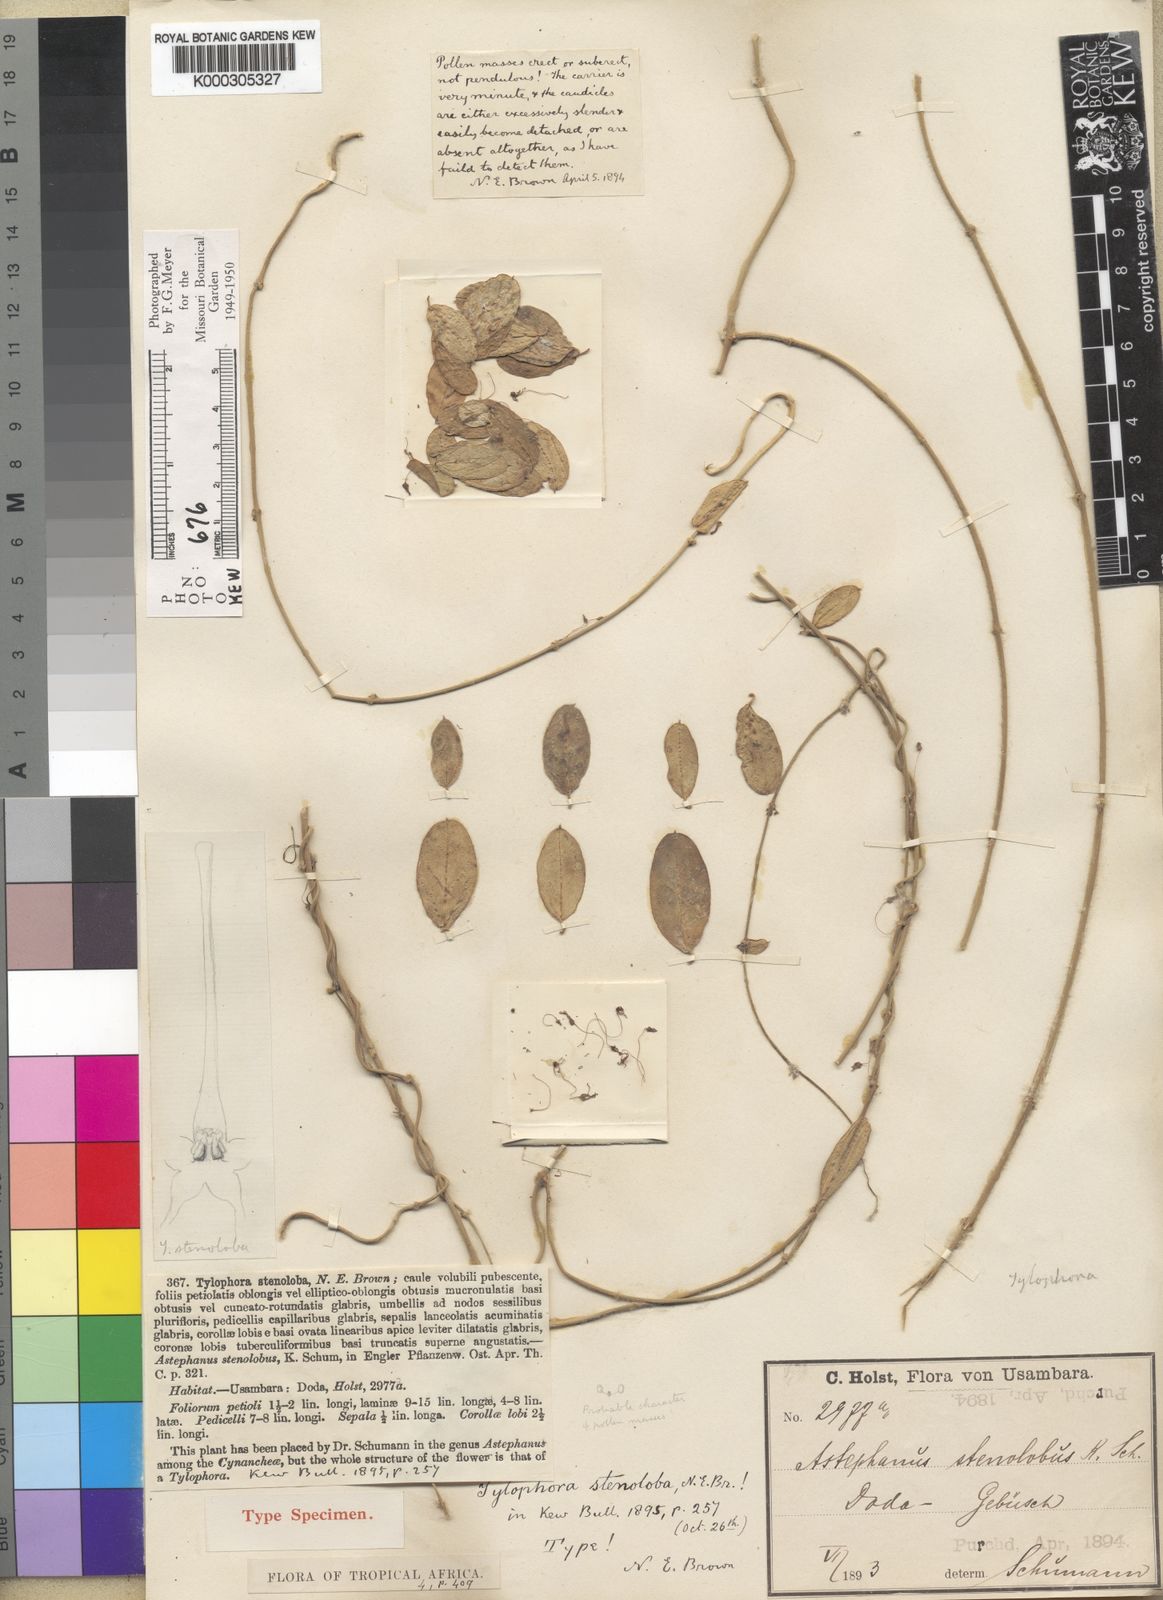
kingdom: Plantae
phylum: Tracheophyta
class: Magnoliopsida
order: Gentianales
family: Apocynaceae
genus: Vincetoxicum
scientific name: Vincetoxicum stenolobum
